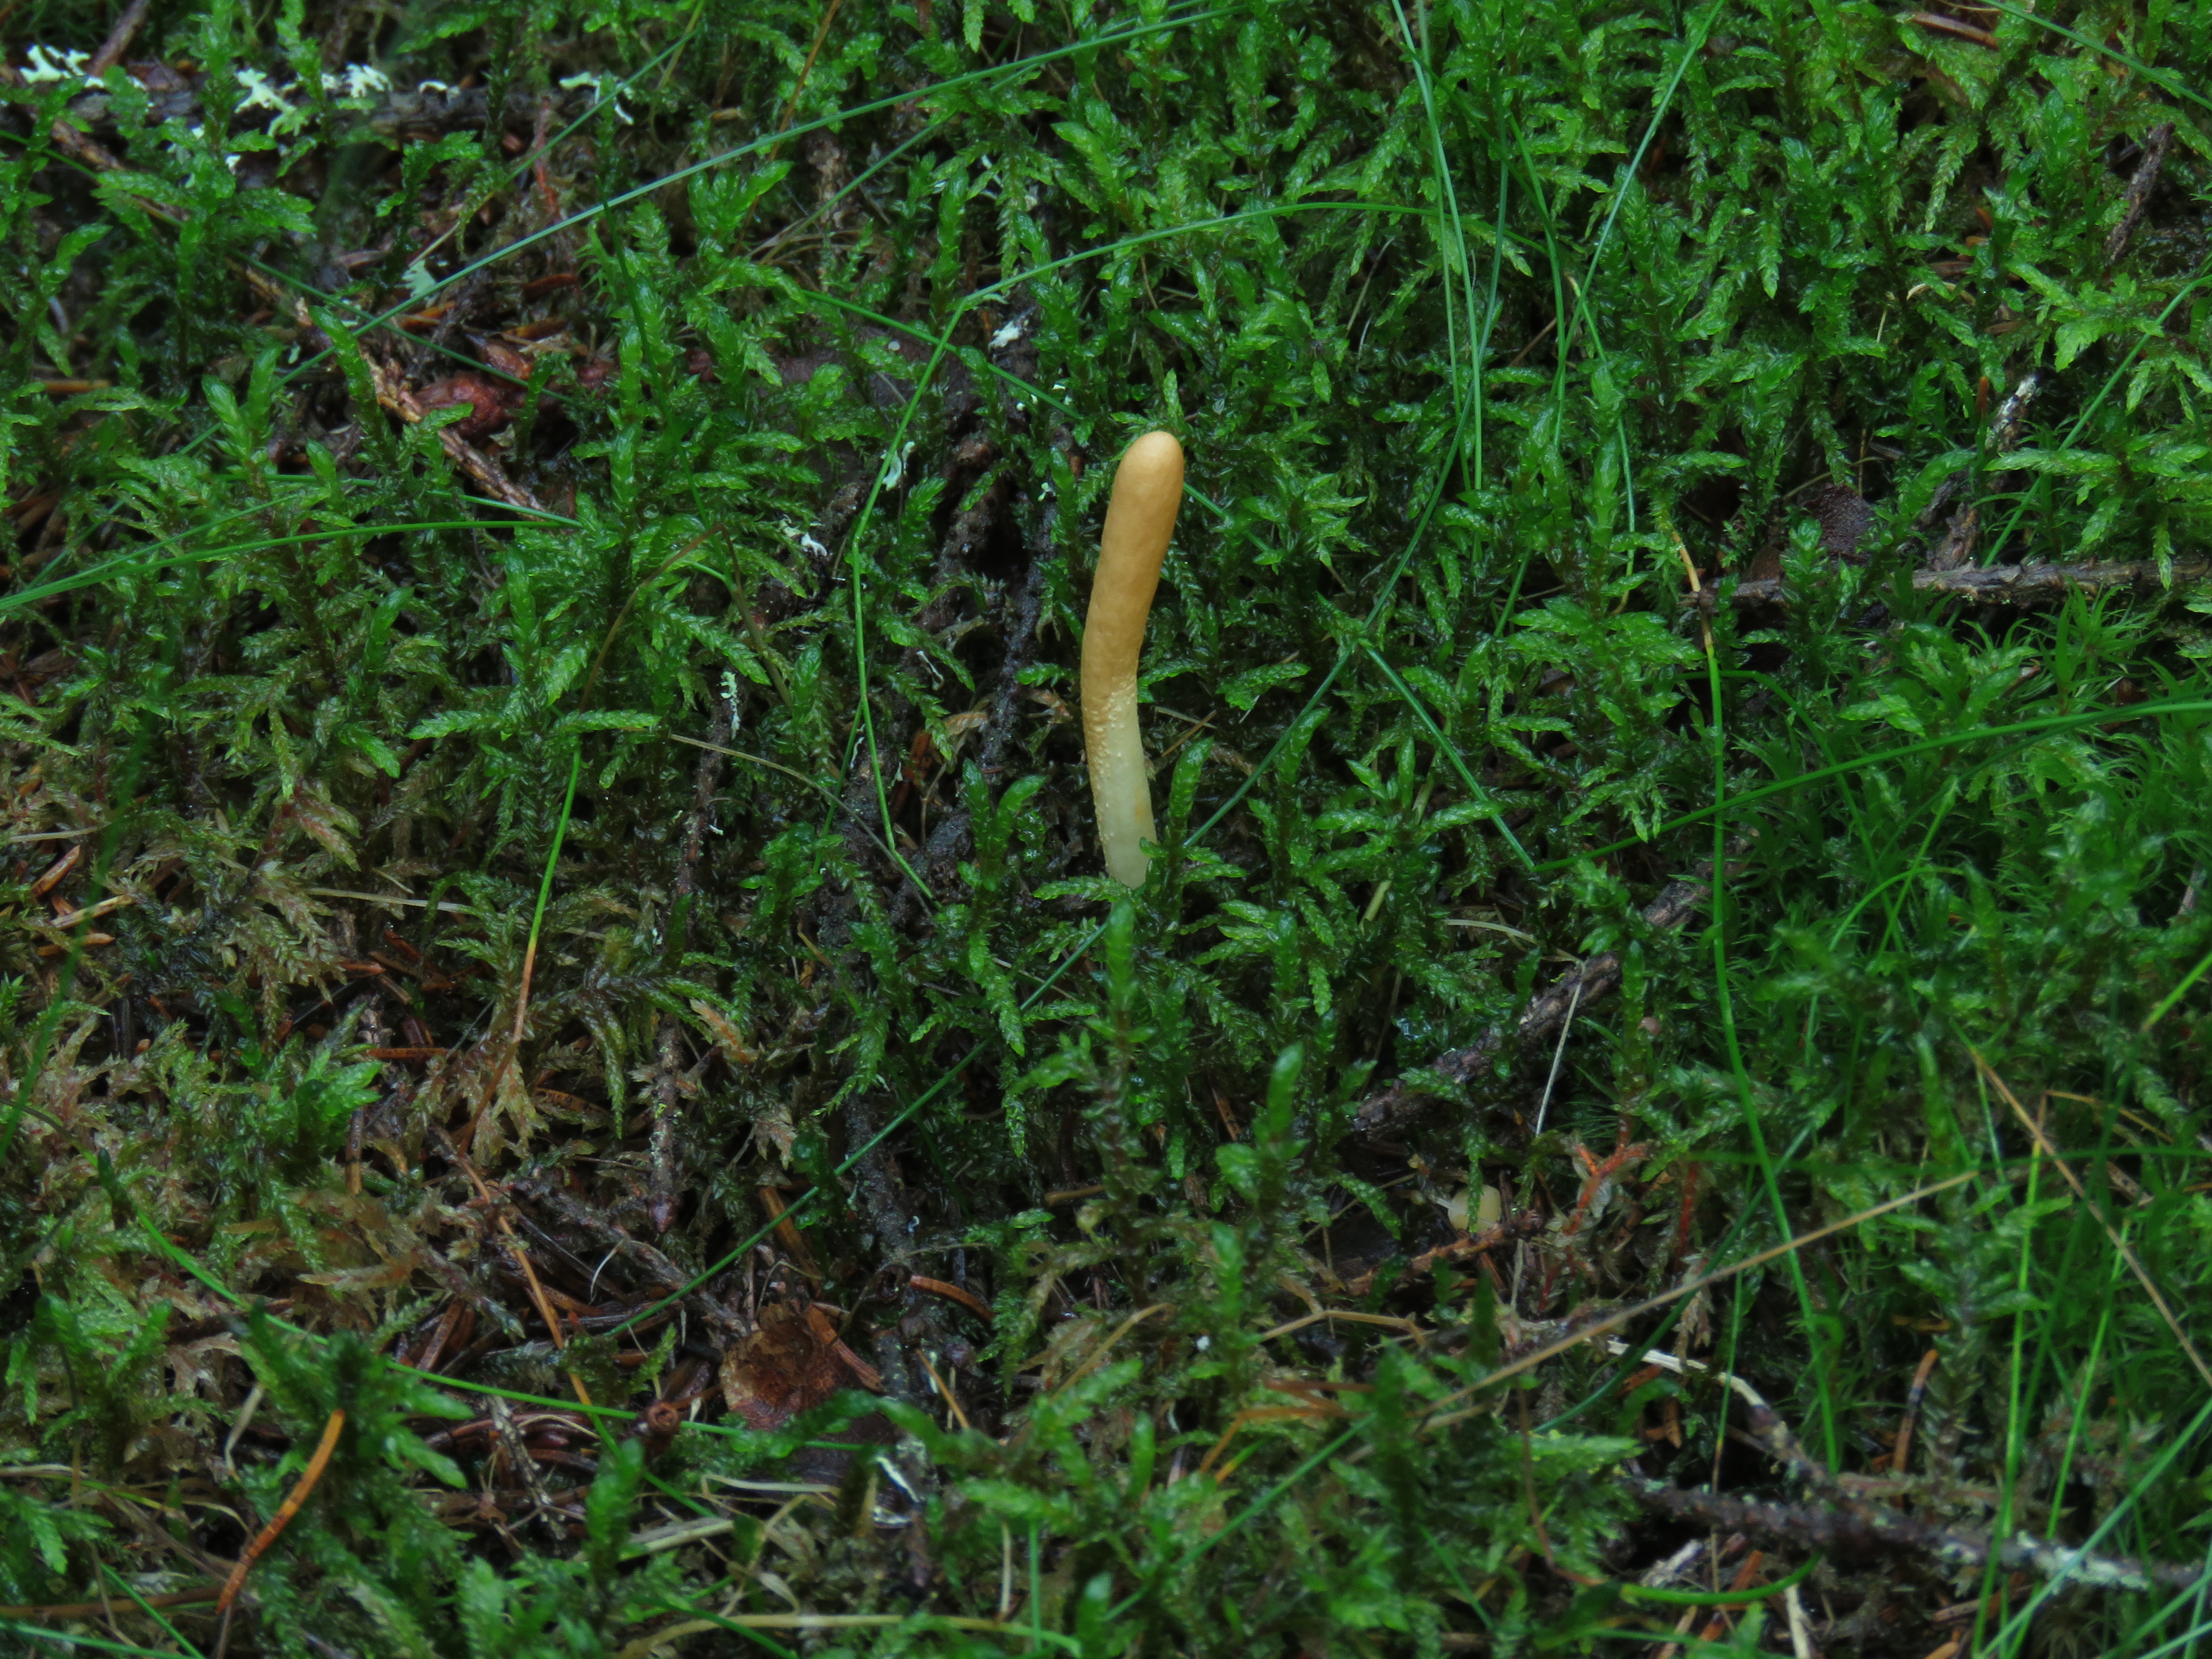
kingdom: Fungi
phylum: Ascomycota
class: Sordariomycetes
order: Hypocreales
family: Hypocreaceae
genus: Hypocrea
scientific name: Hypocrea
